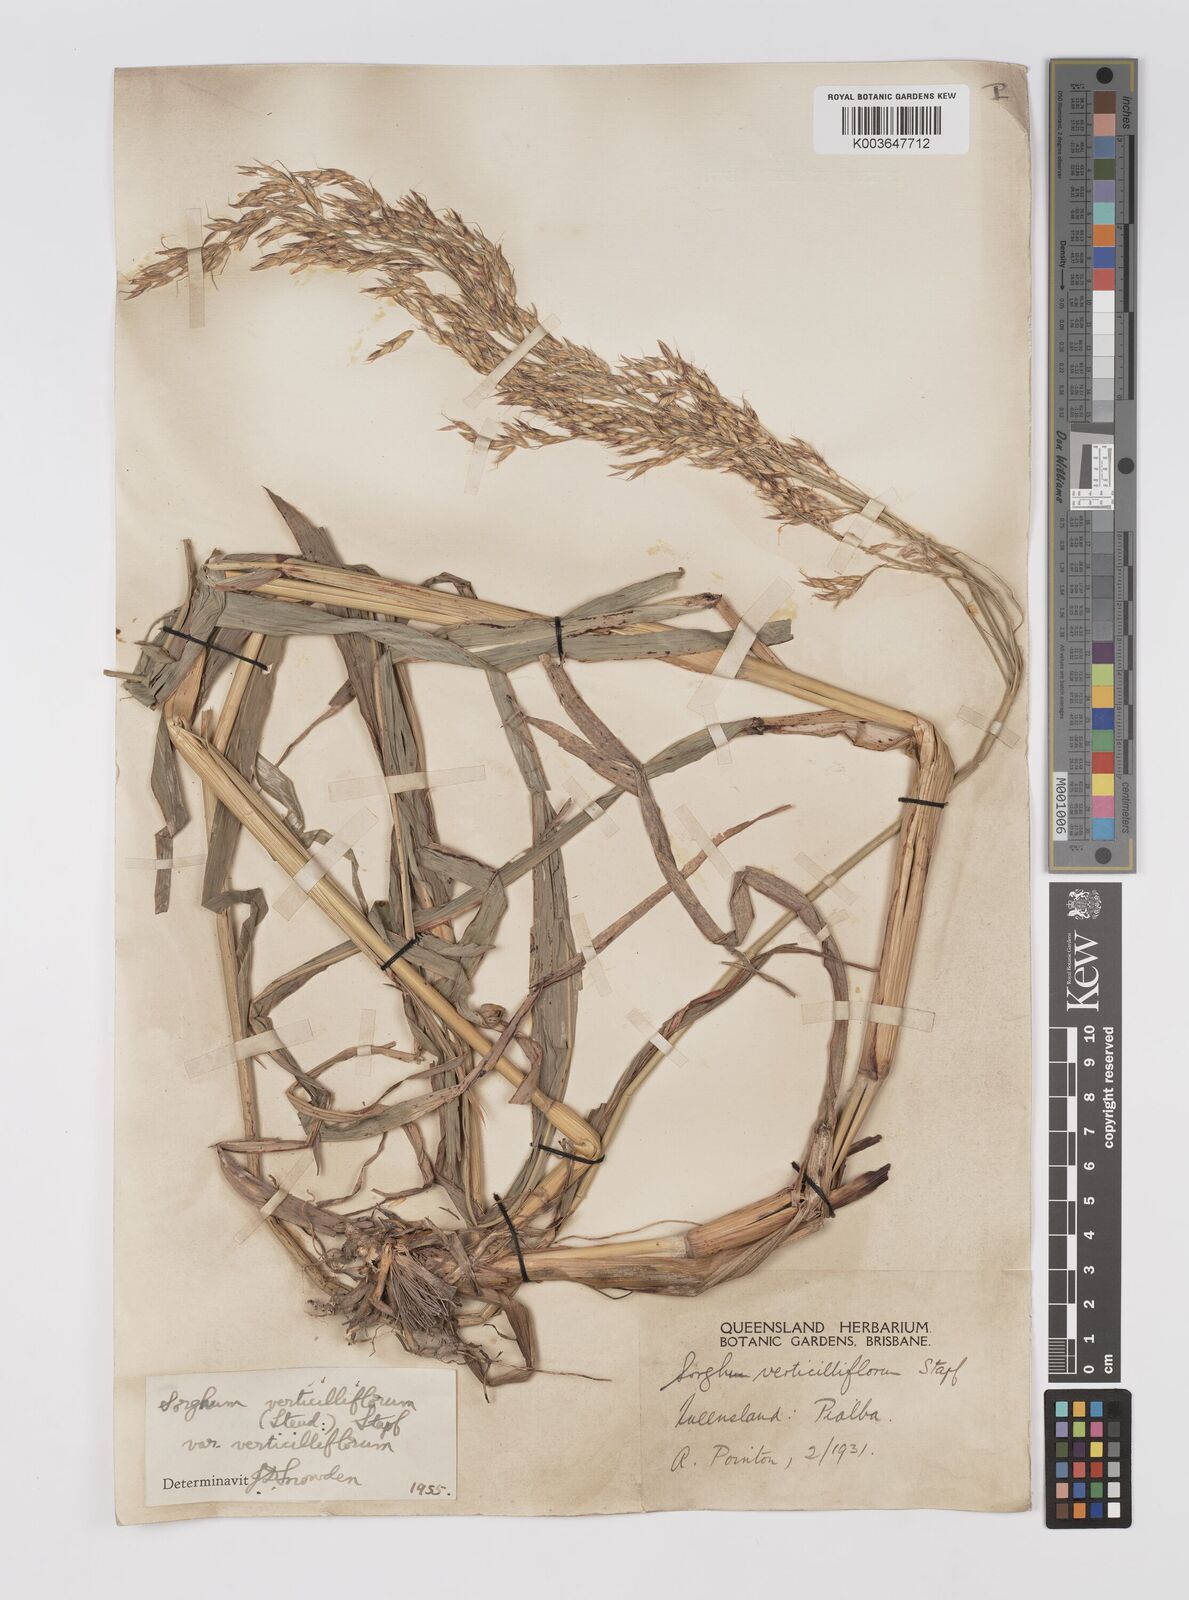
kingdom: Plantae
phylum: Tracheophyta
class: Liliopsida
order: Poales
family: Poaceae
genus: Sorghum
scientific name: Sorghum arundinaceum
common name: Sorghum
